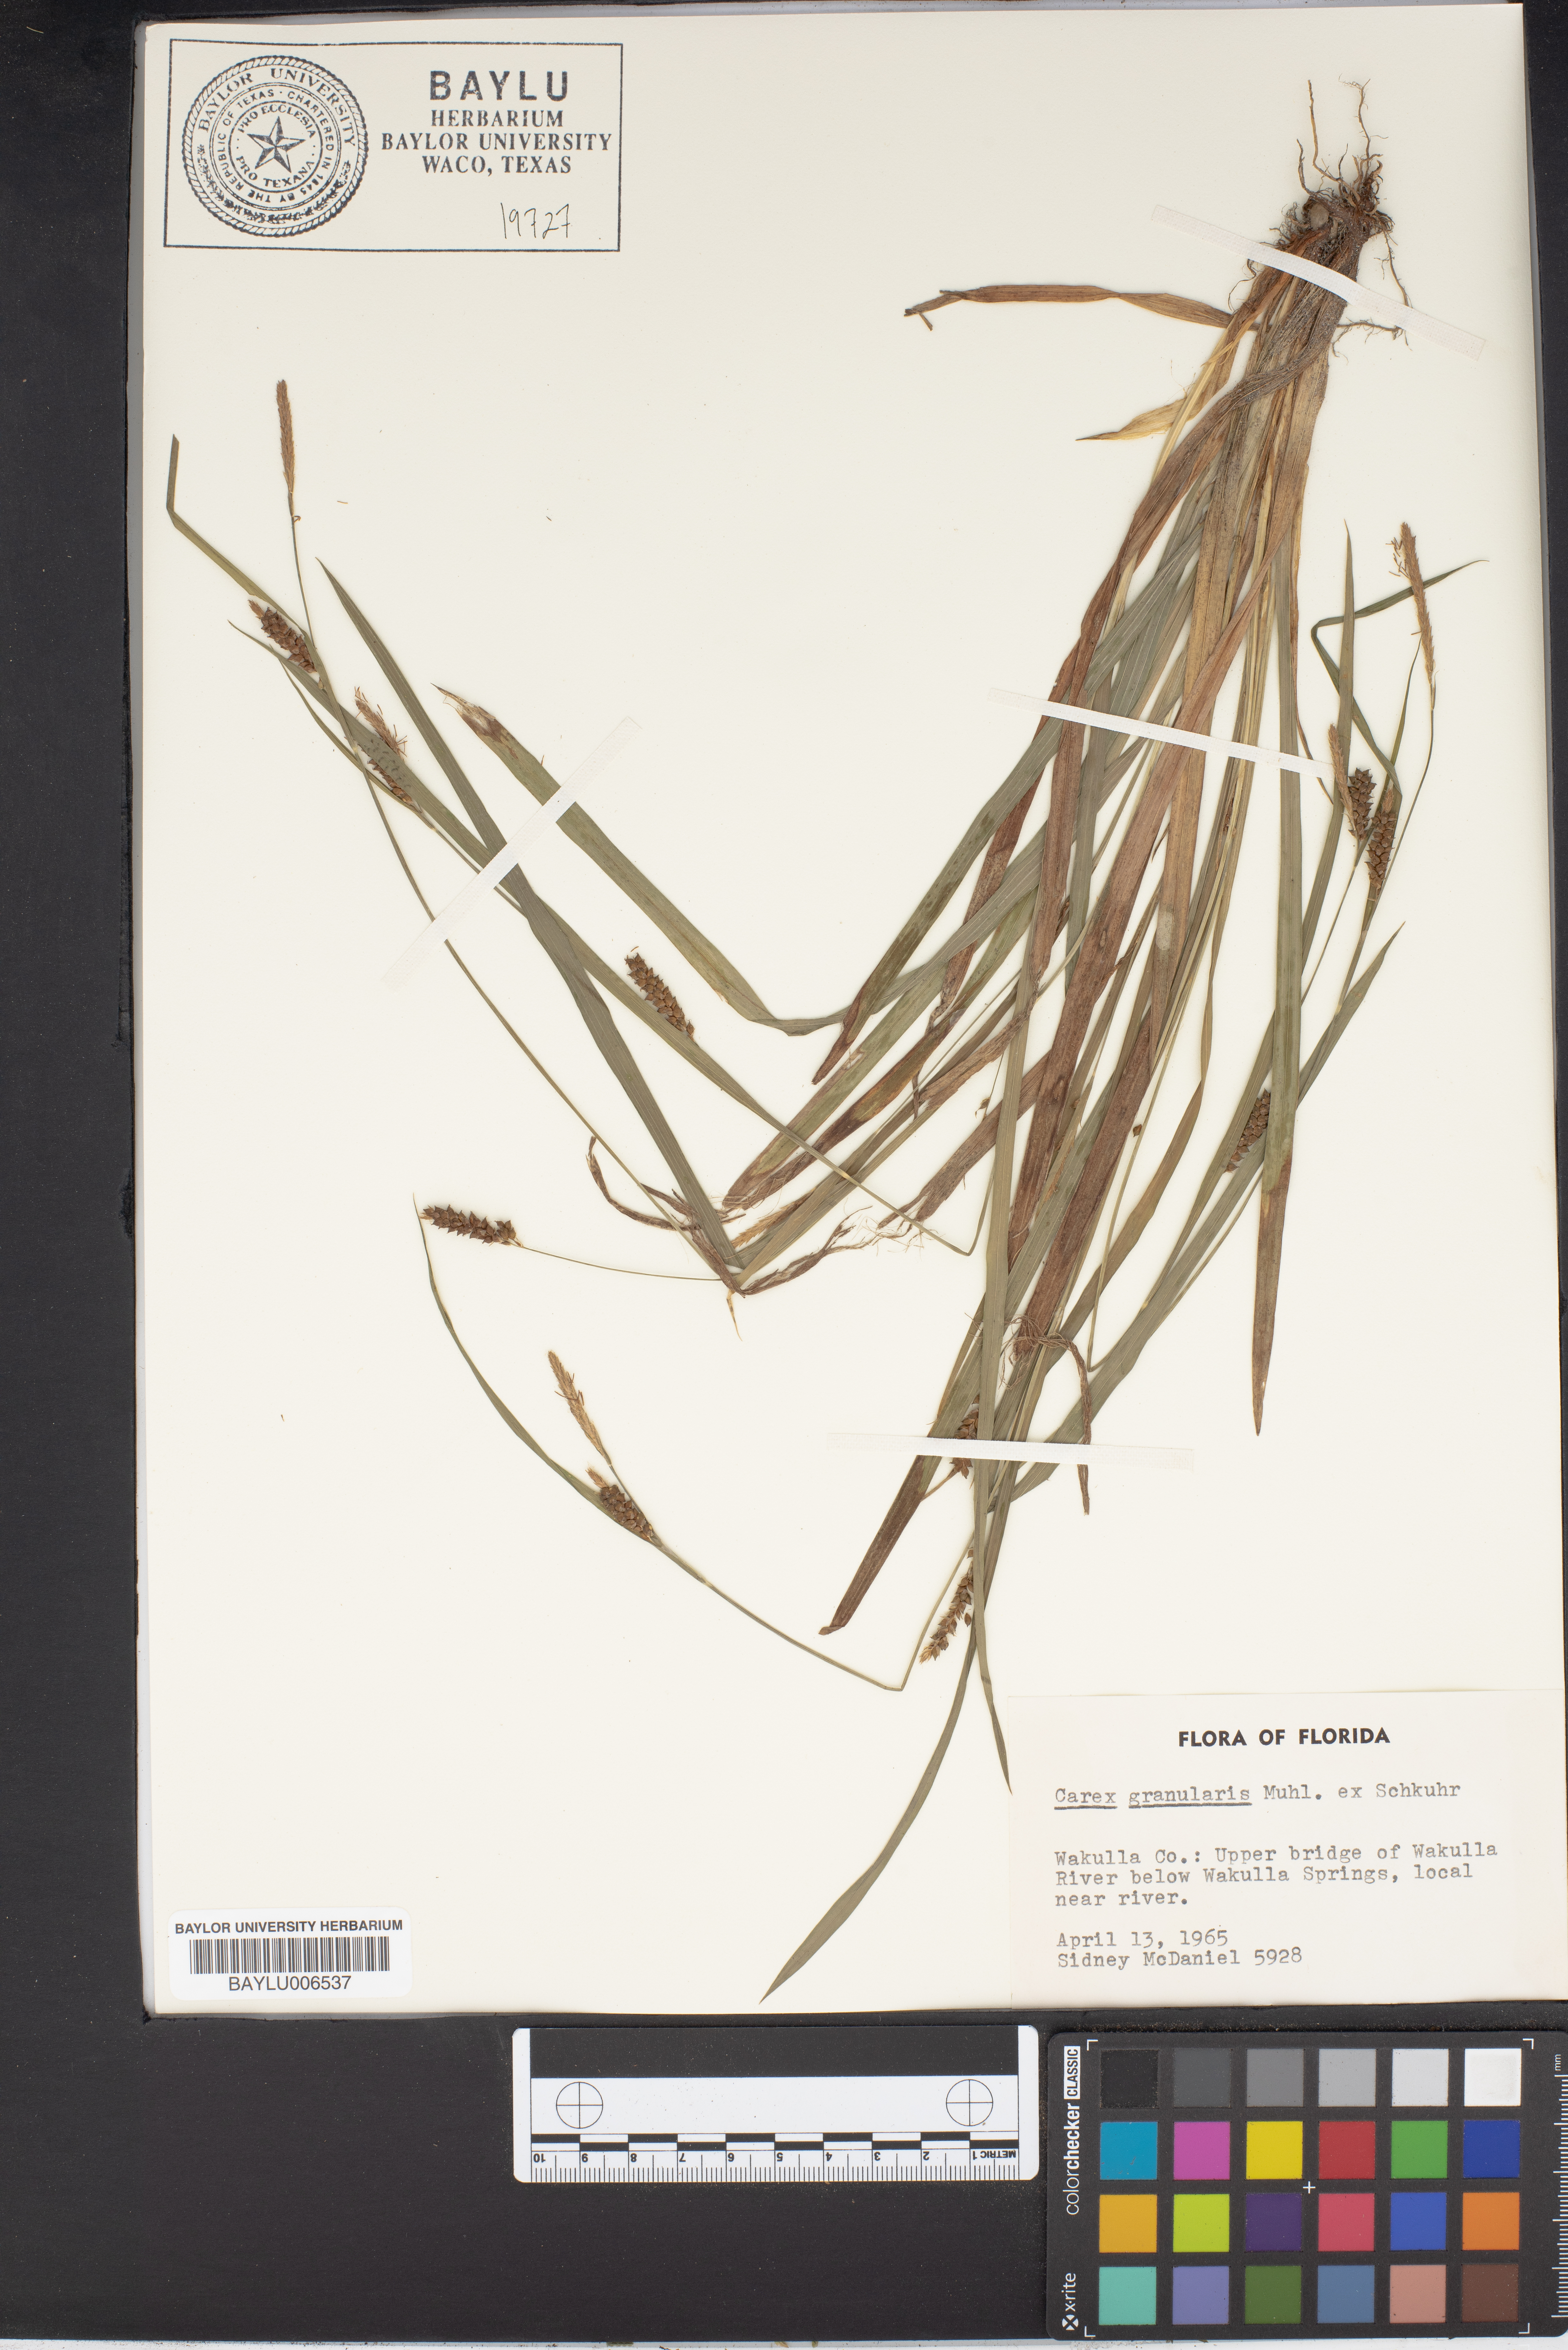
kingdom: Plantae
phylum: Tracheophyta
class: Liliopsida
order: Poales
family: Cyperaceae
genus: Carex
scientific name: Carex granularis
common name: Granular sedge
